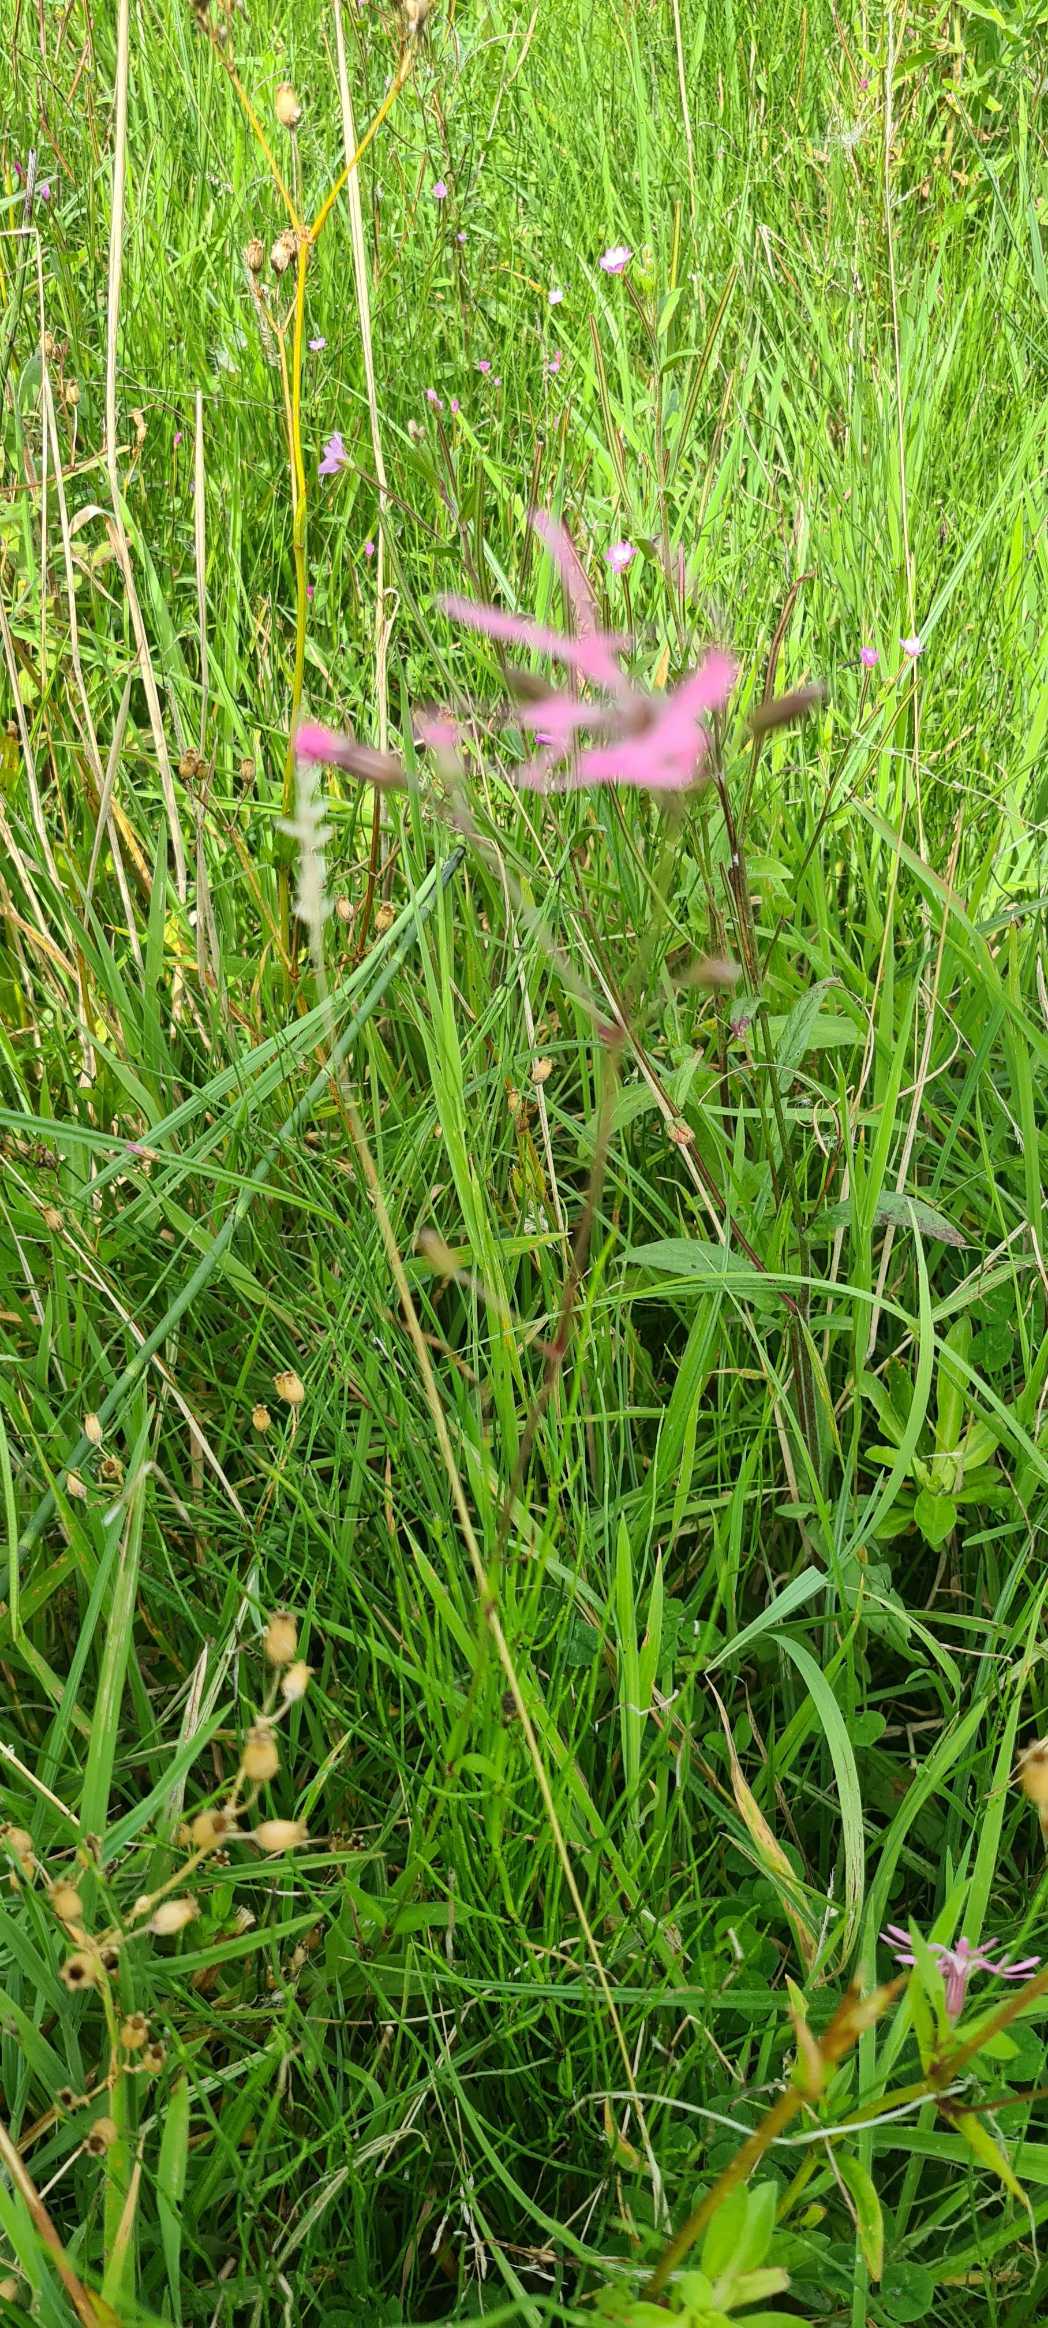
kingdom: Plantae
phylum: Tracheophyta
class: Magnoliopsida
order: Caryophyllales
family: Caryophyllaceae
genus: Silene
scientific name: Silene flos-cuculi
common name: Trævlekrone
